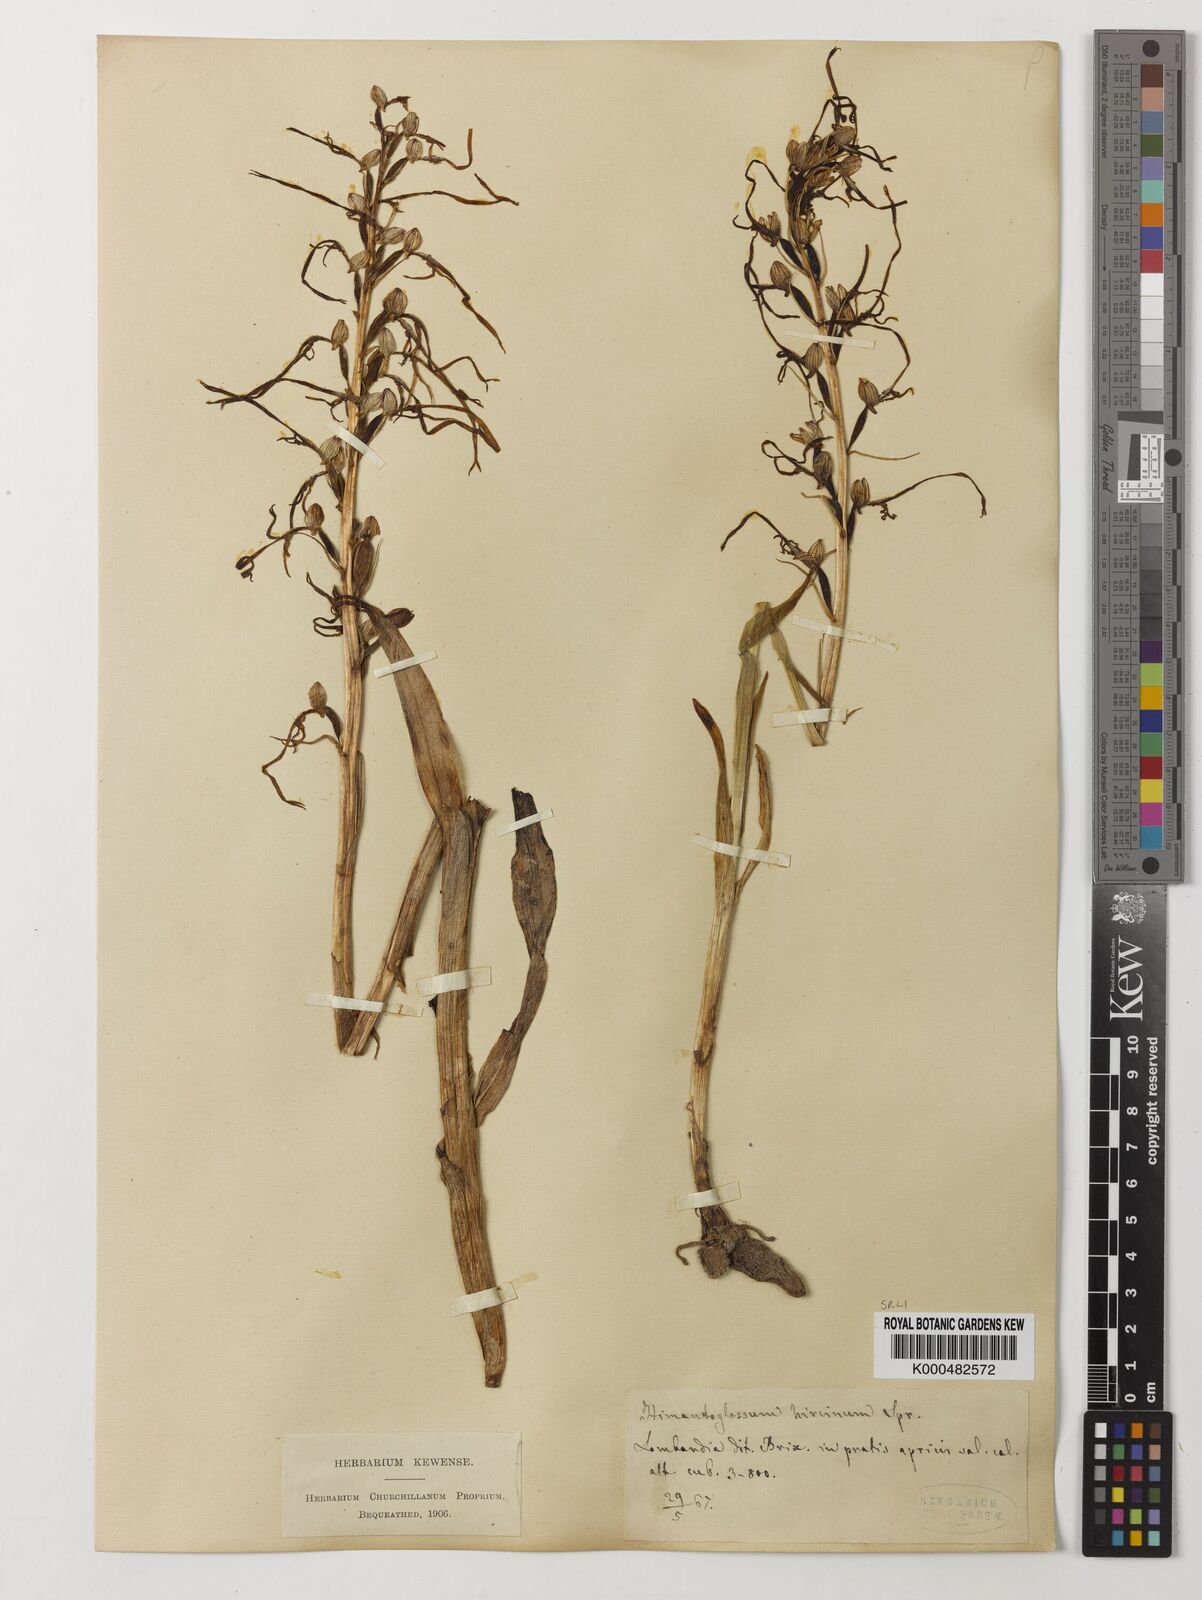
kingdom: Plantae
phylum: Tracheophyta
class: Liliopsida
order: Asparagales
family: Orchidaceae
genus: Himantoglossum
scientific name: Himantoglossum adriaticum
